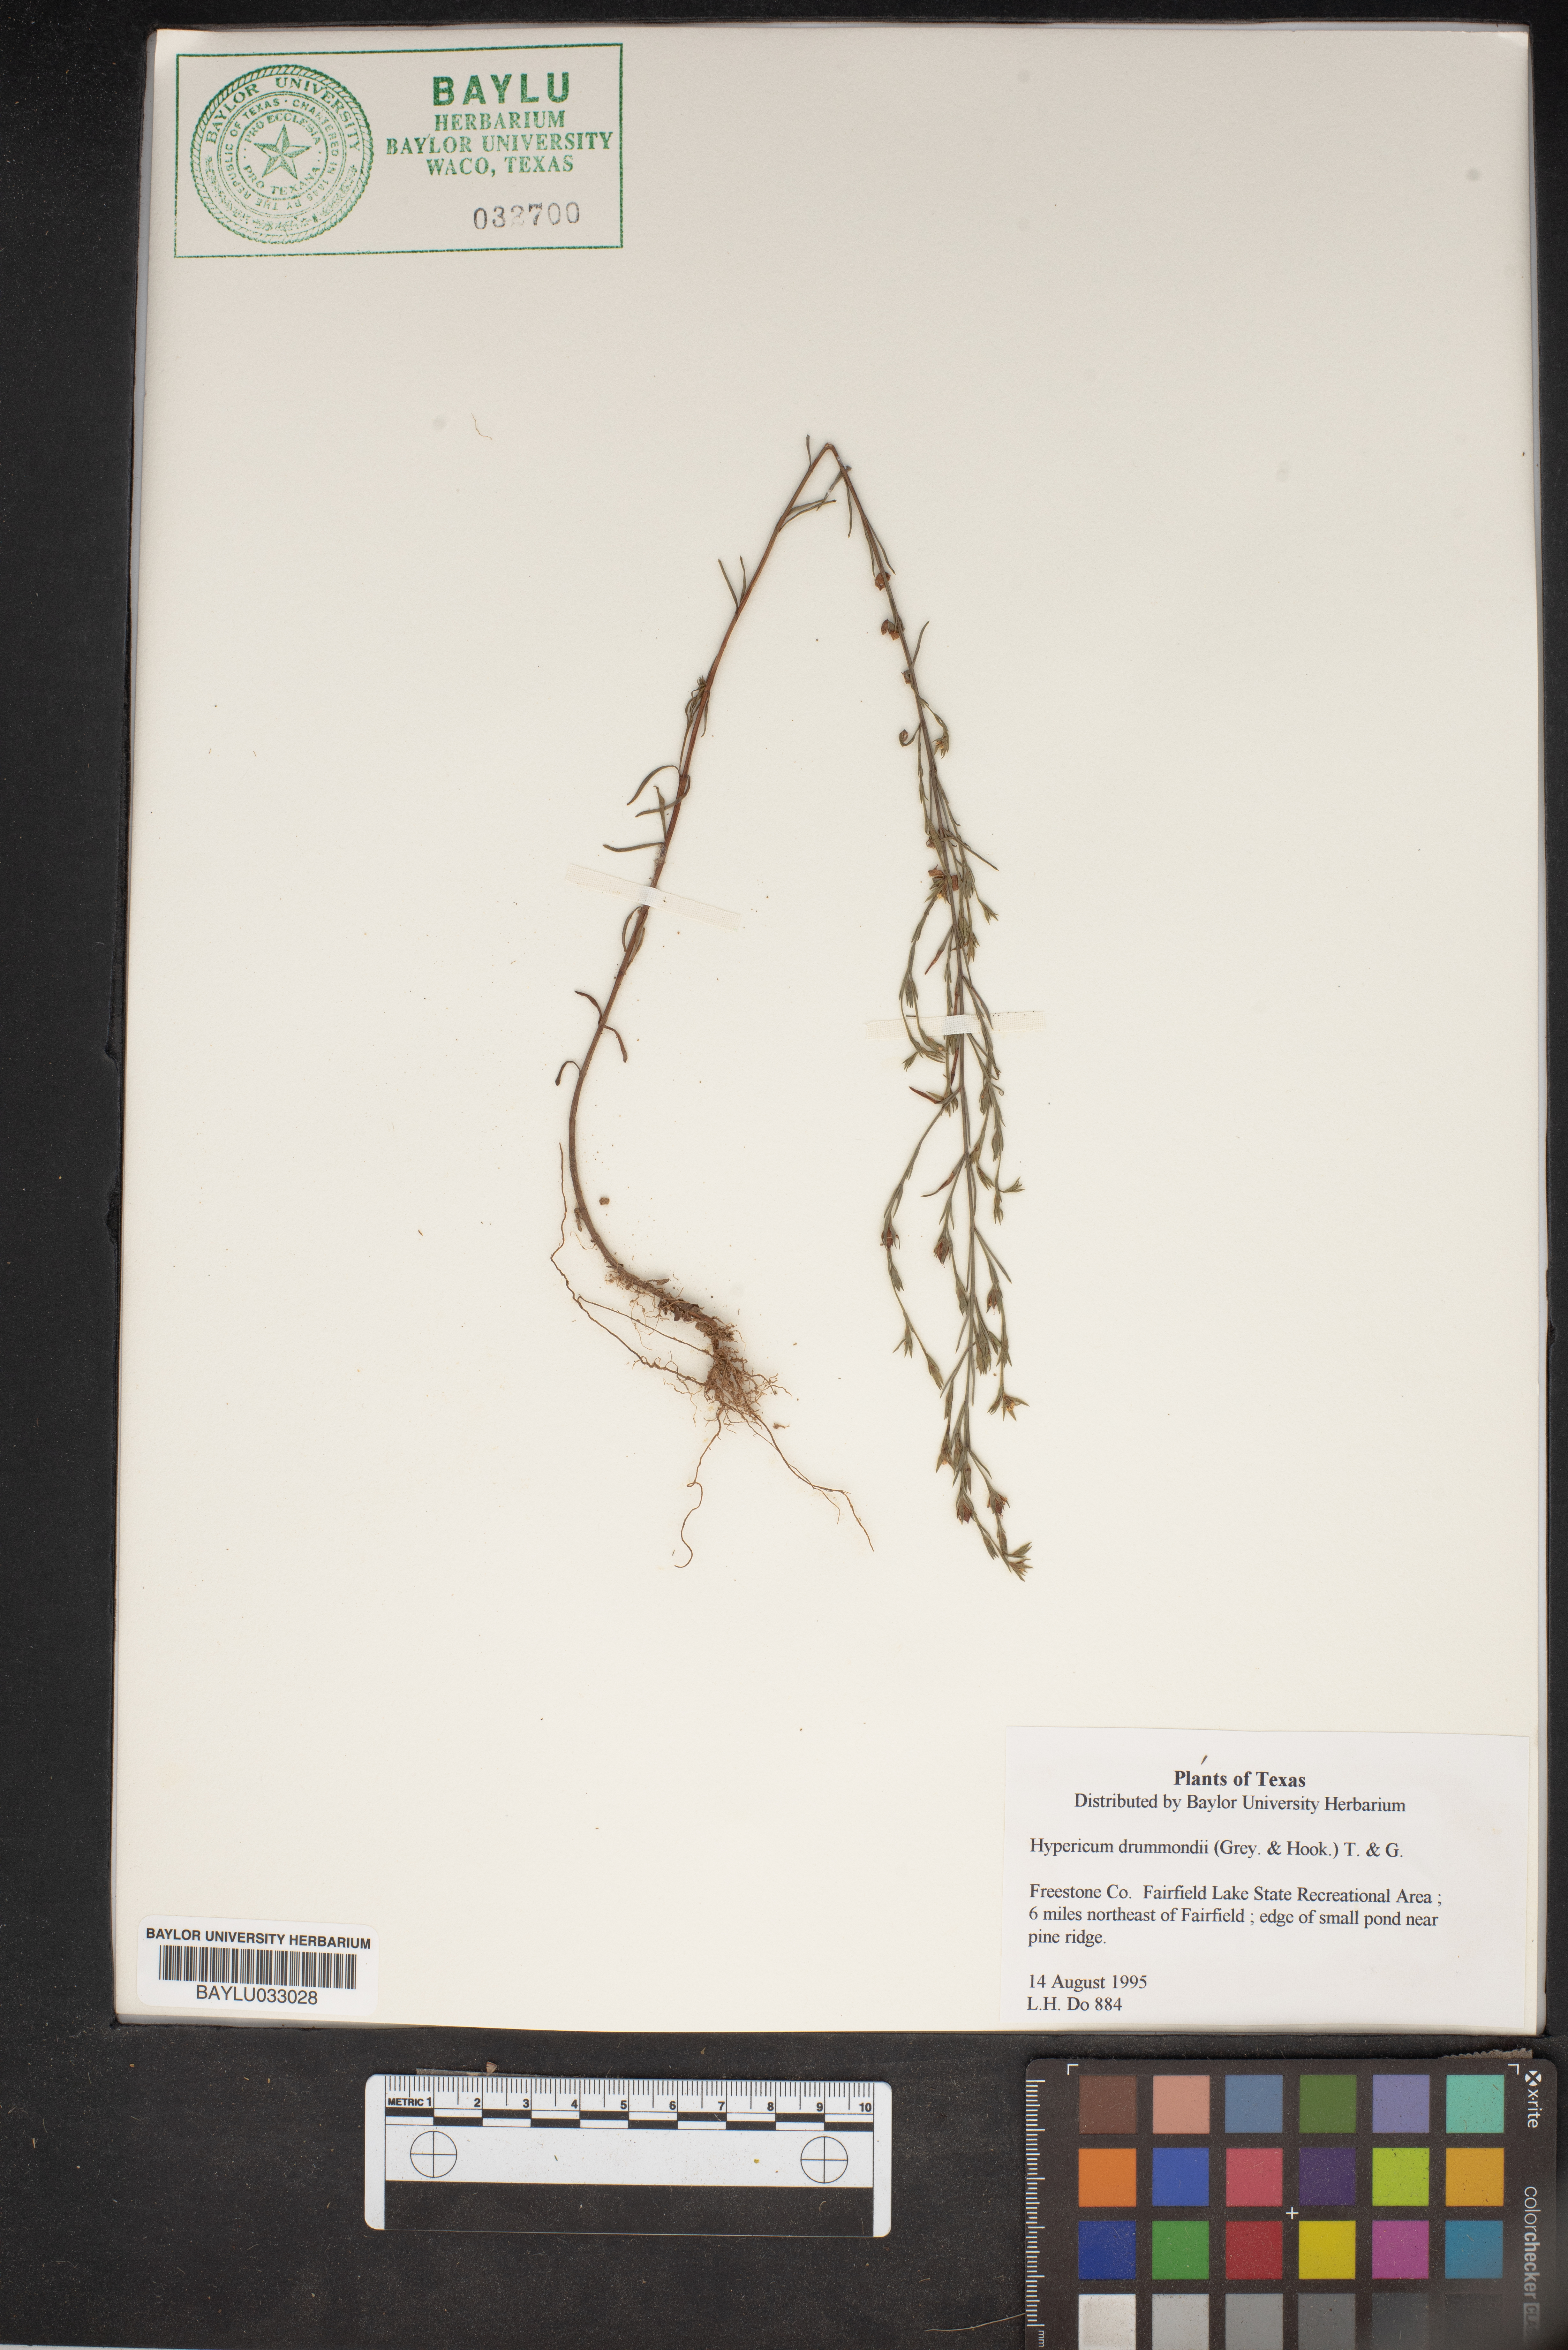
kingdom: Plantae
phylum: Tracheophyta
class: Magnoliopsida
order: Malpighiales
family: Hypericaceae
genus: Hypericum
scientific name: Hypericum drummondii
